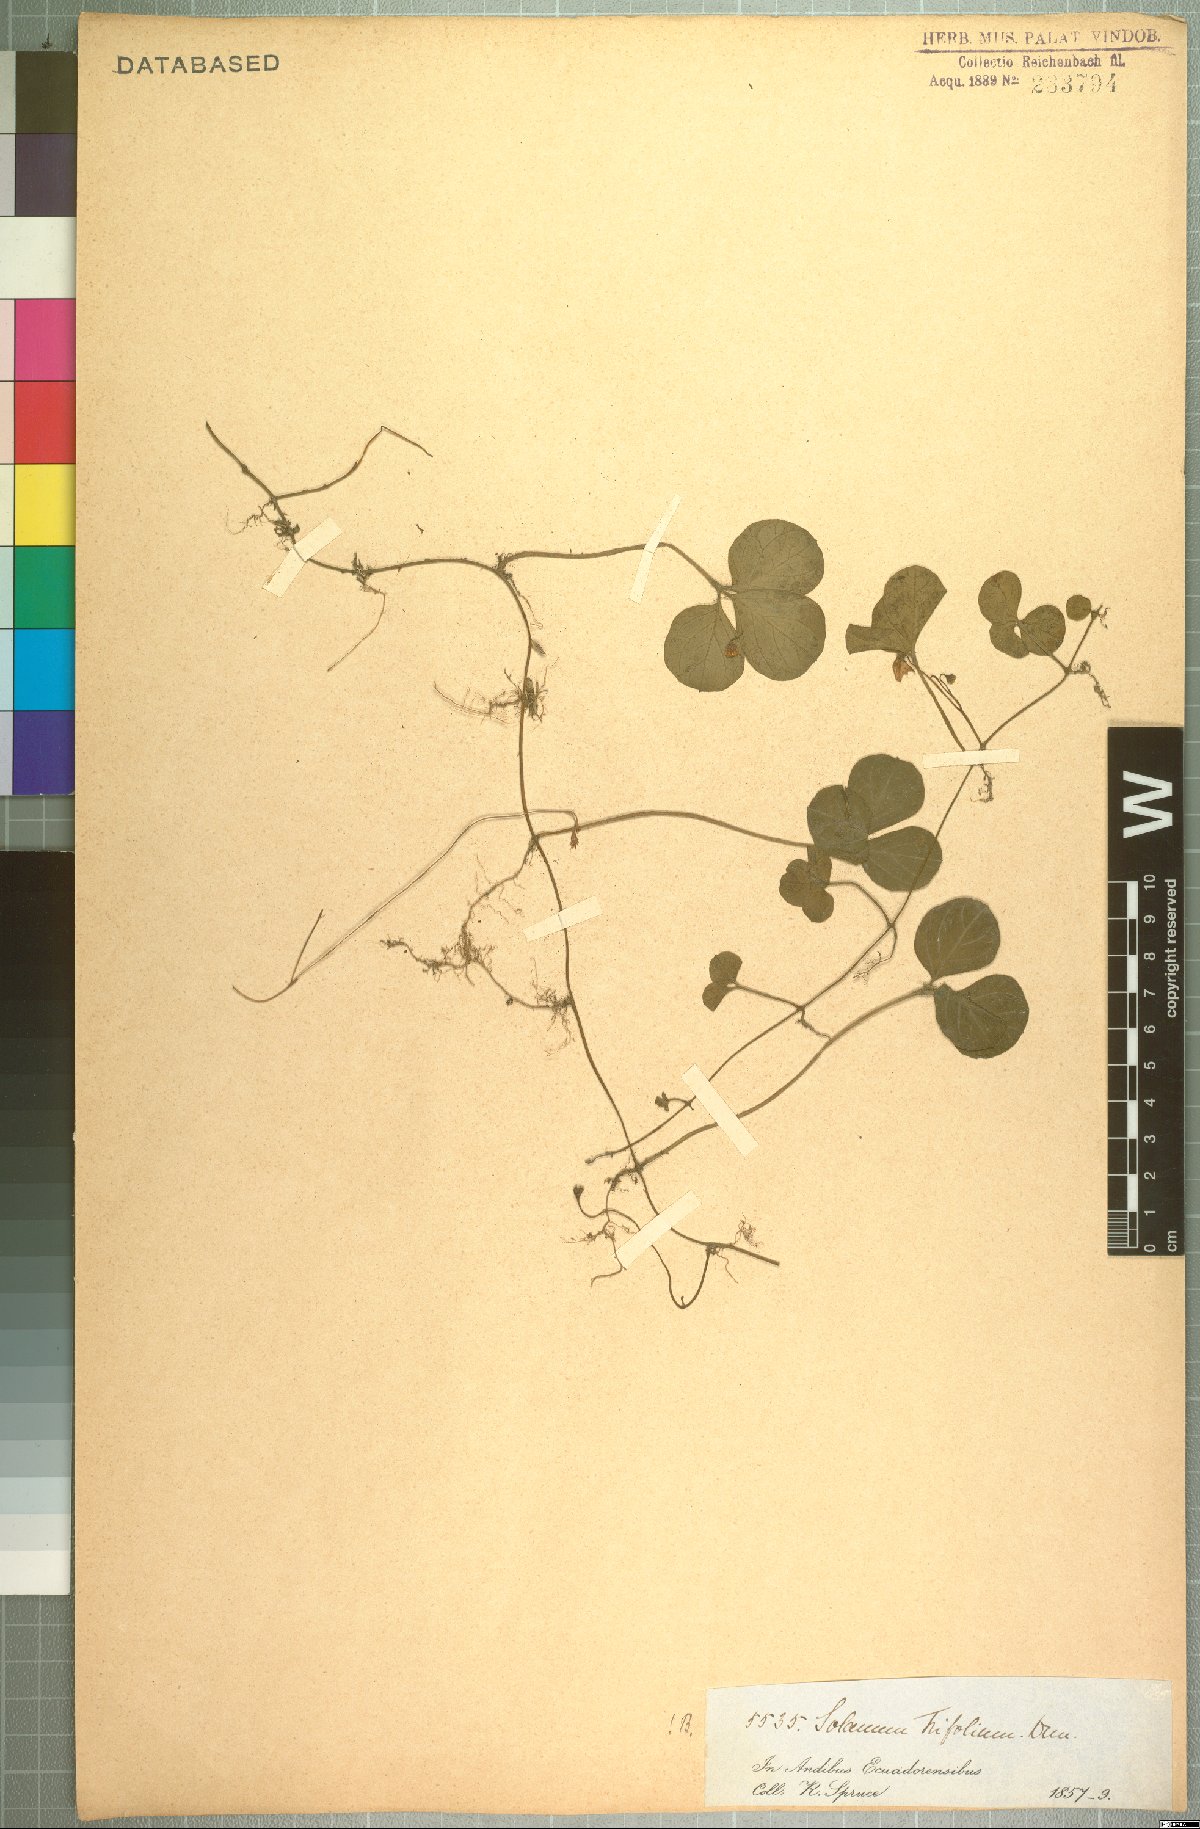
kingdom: Plantae
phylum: Tracheophyta
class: Magnoliopsida
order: Solanales
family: Solanaceae
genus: Solanum
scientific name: Solanum trifolium
